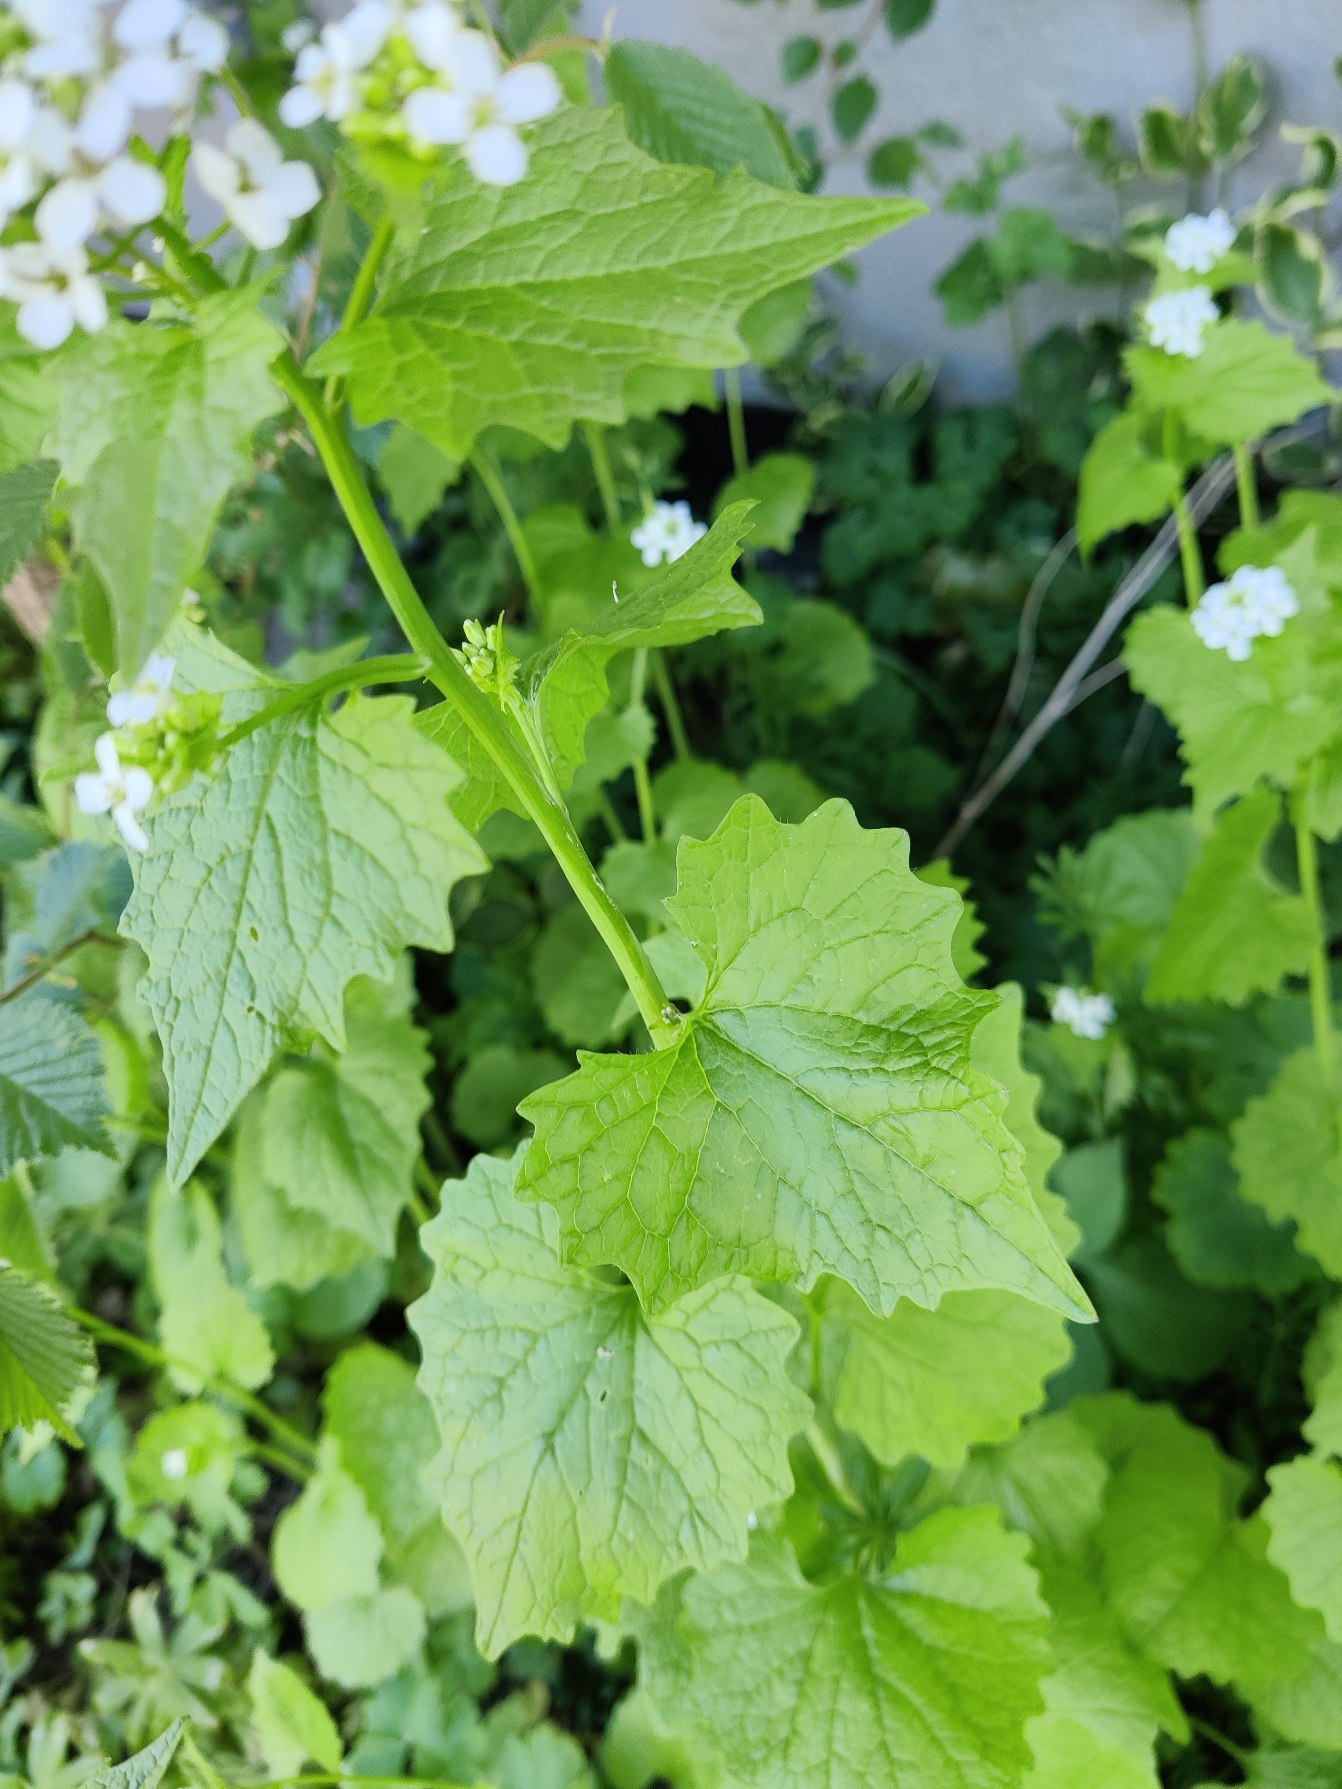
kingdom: Plantae
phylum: Tracheophyta
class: Magnoliopsida
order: Brassicales
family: Brassicaceae
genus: Alliaria
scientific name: Alliaria petiolata
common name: Løgkarse
